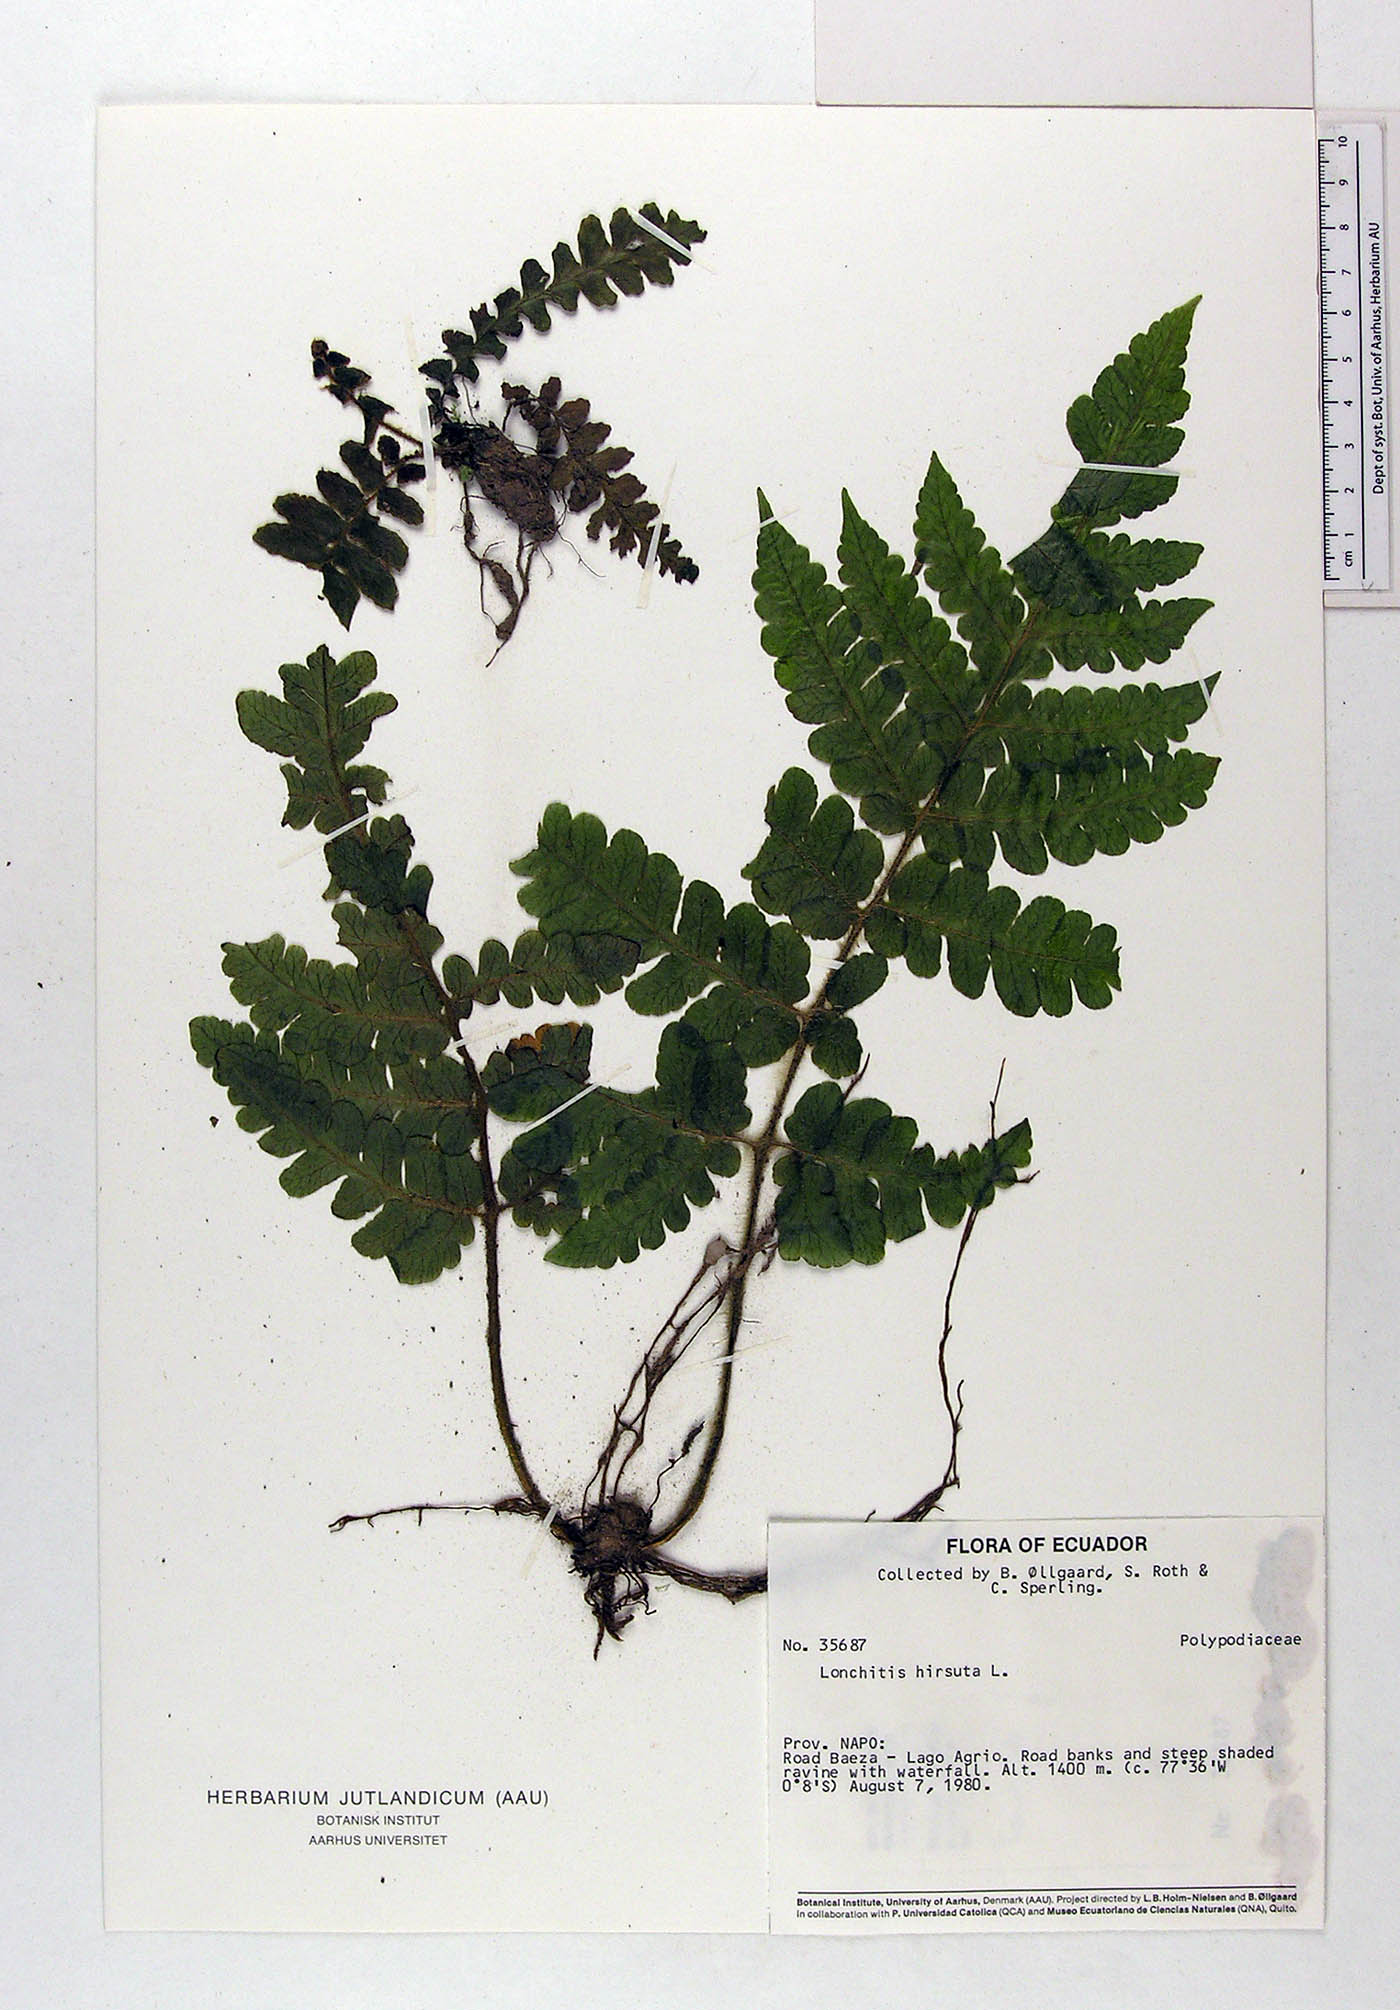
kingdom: Plantae
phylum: Tracheophyta
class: Polypodiopsida
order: Polypodiales
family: Lonchitidaceae
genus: Lonchitis
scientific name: Lonchitis hirsuta
